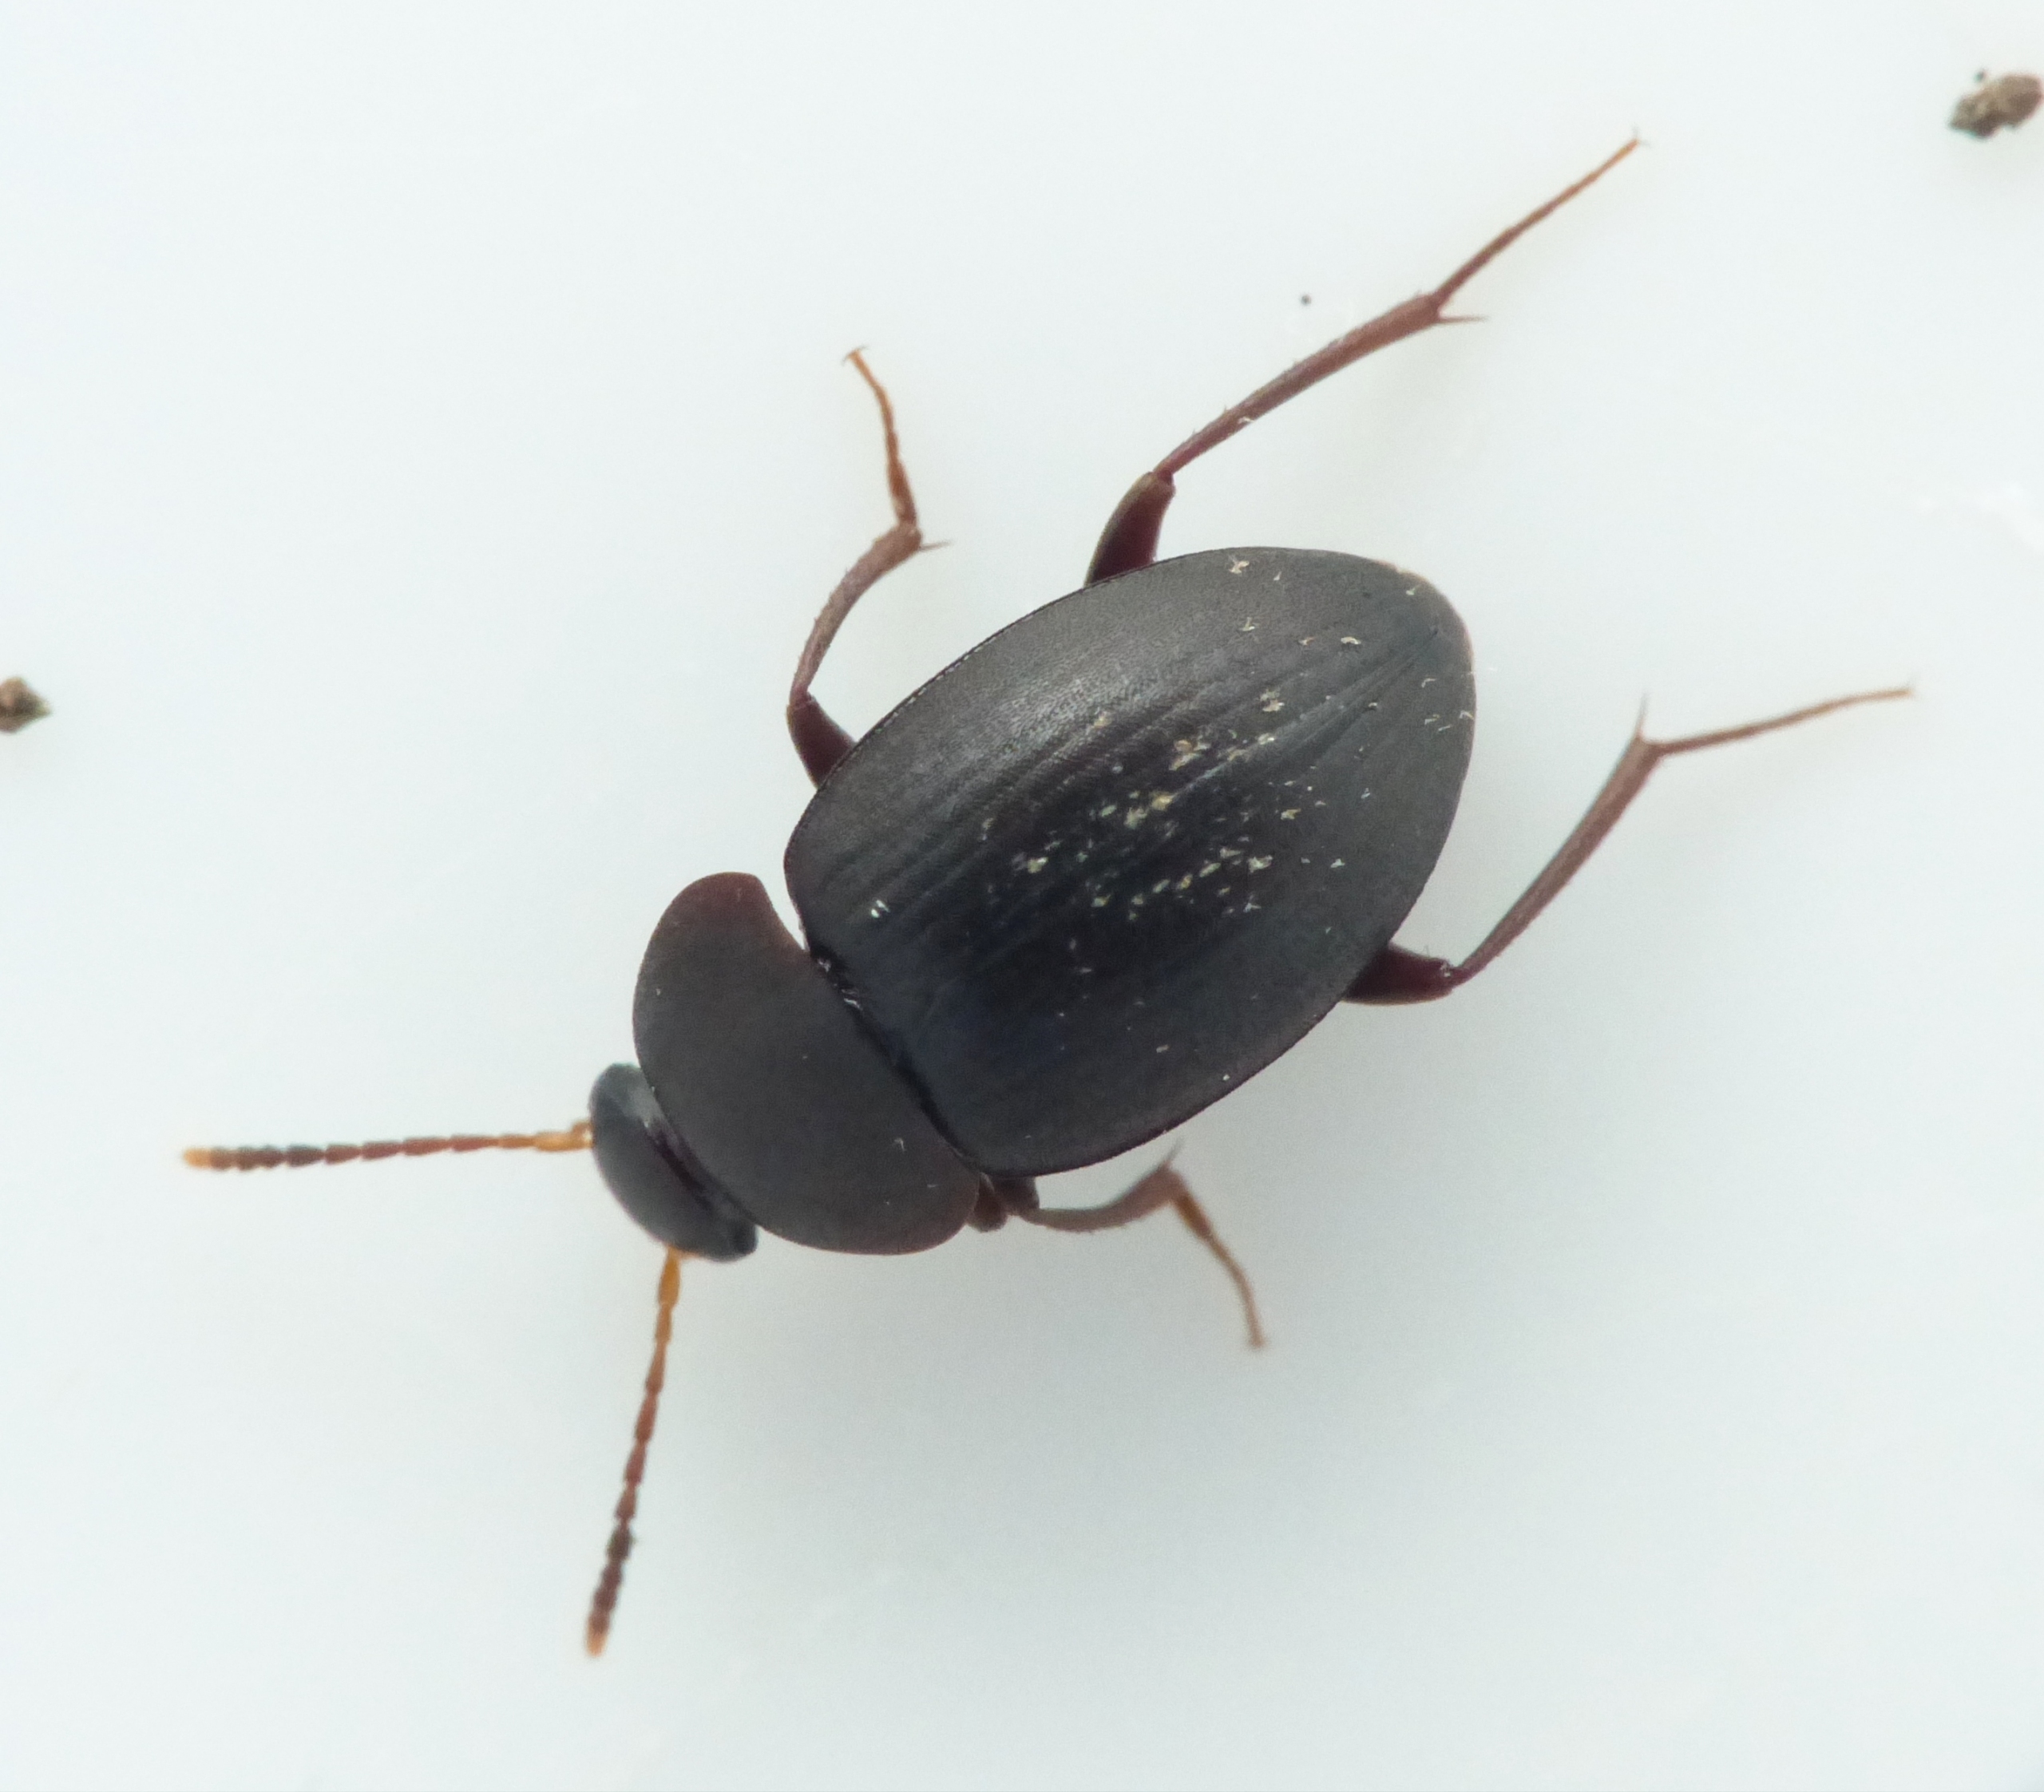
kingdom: Animalia
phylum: Arthropoda
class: Insecta
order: Coleoptera
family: Leiodidae
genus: Catops
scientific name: Catops picipes
